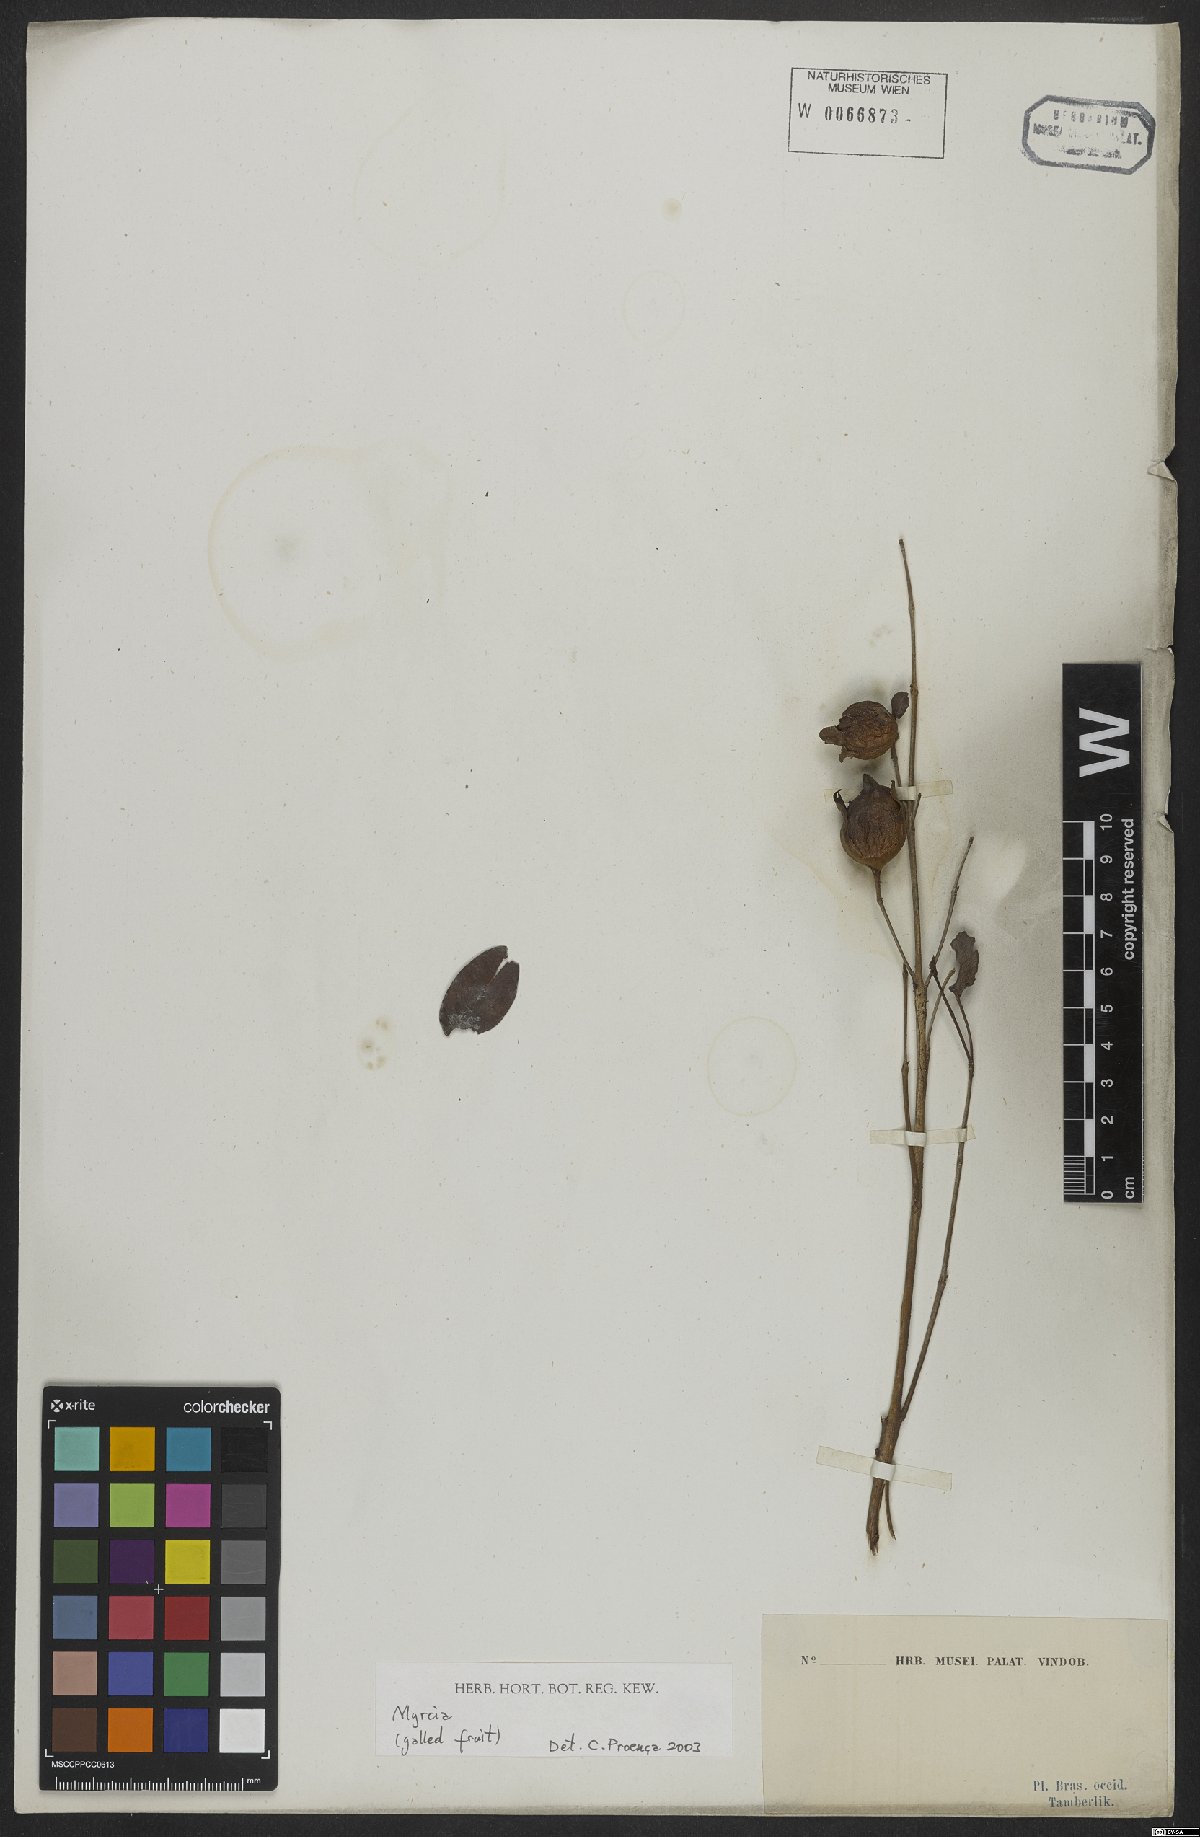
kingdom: Plantae
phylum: Tracheophyta
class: Magnoliopsida
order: Myrtales
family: Myrtaceae
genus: Myrcia
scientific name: Myrcia
